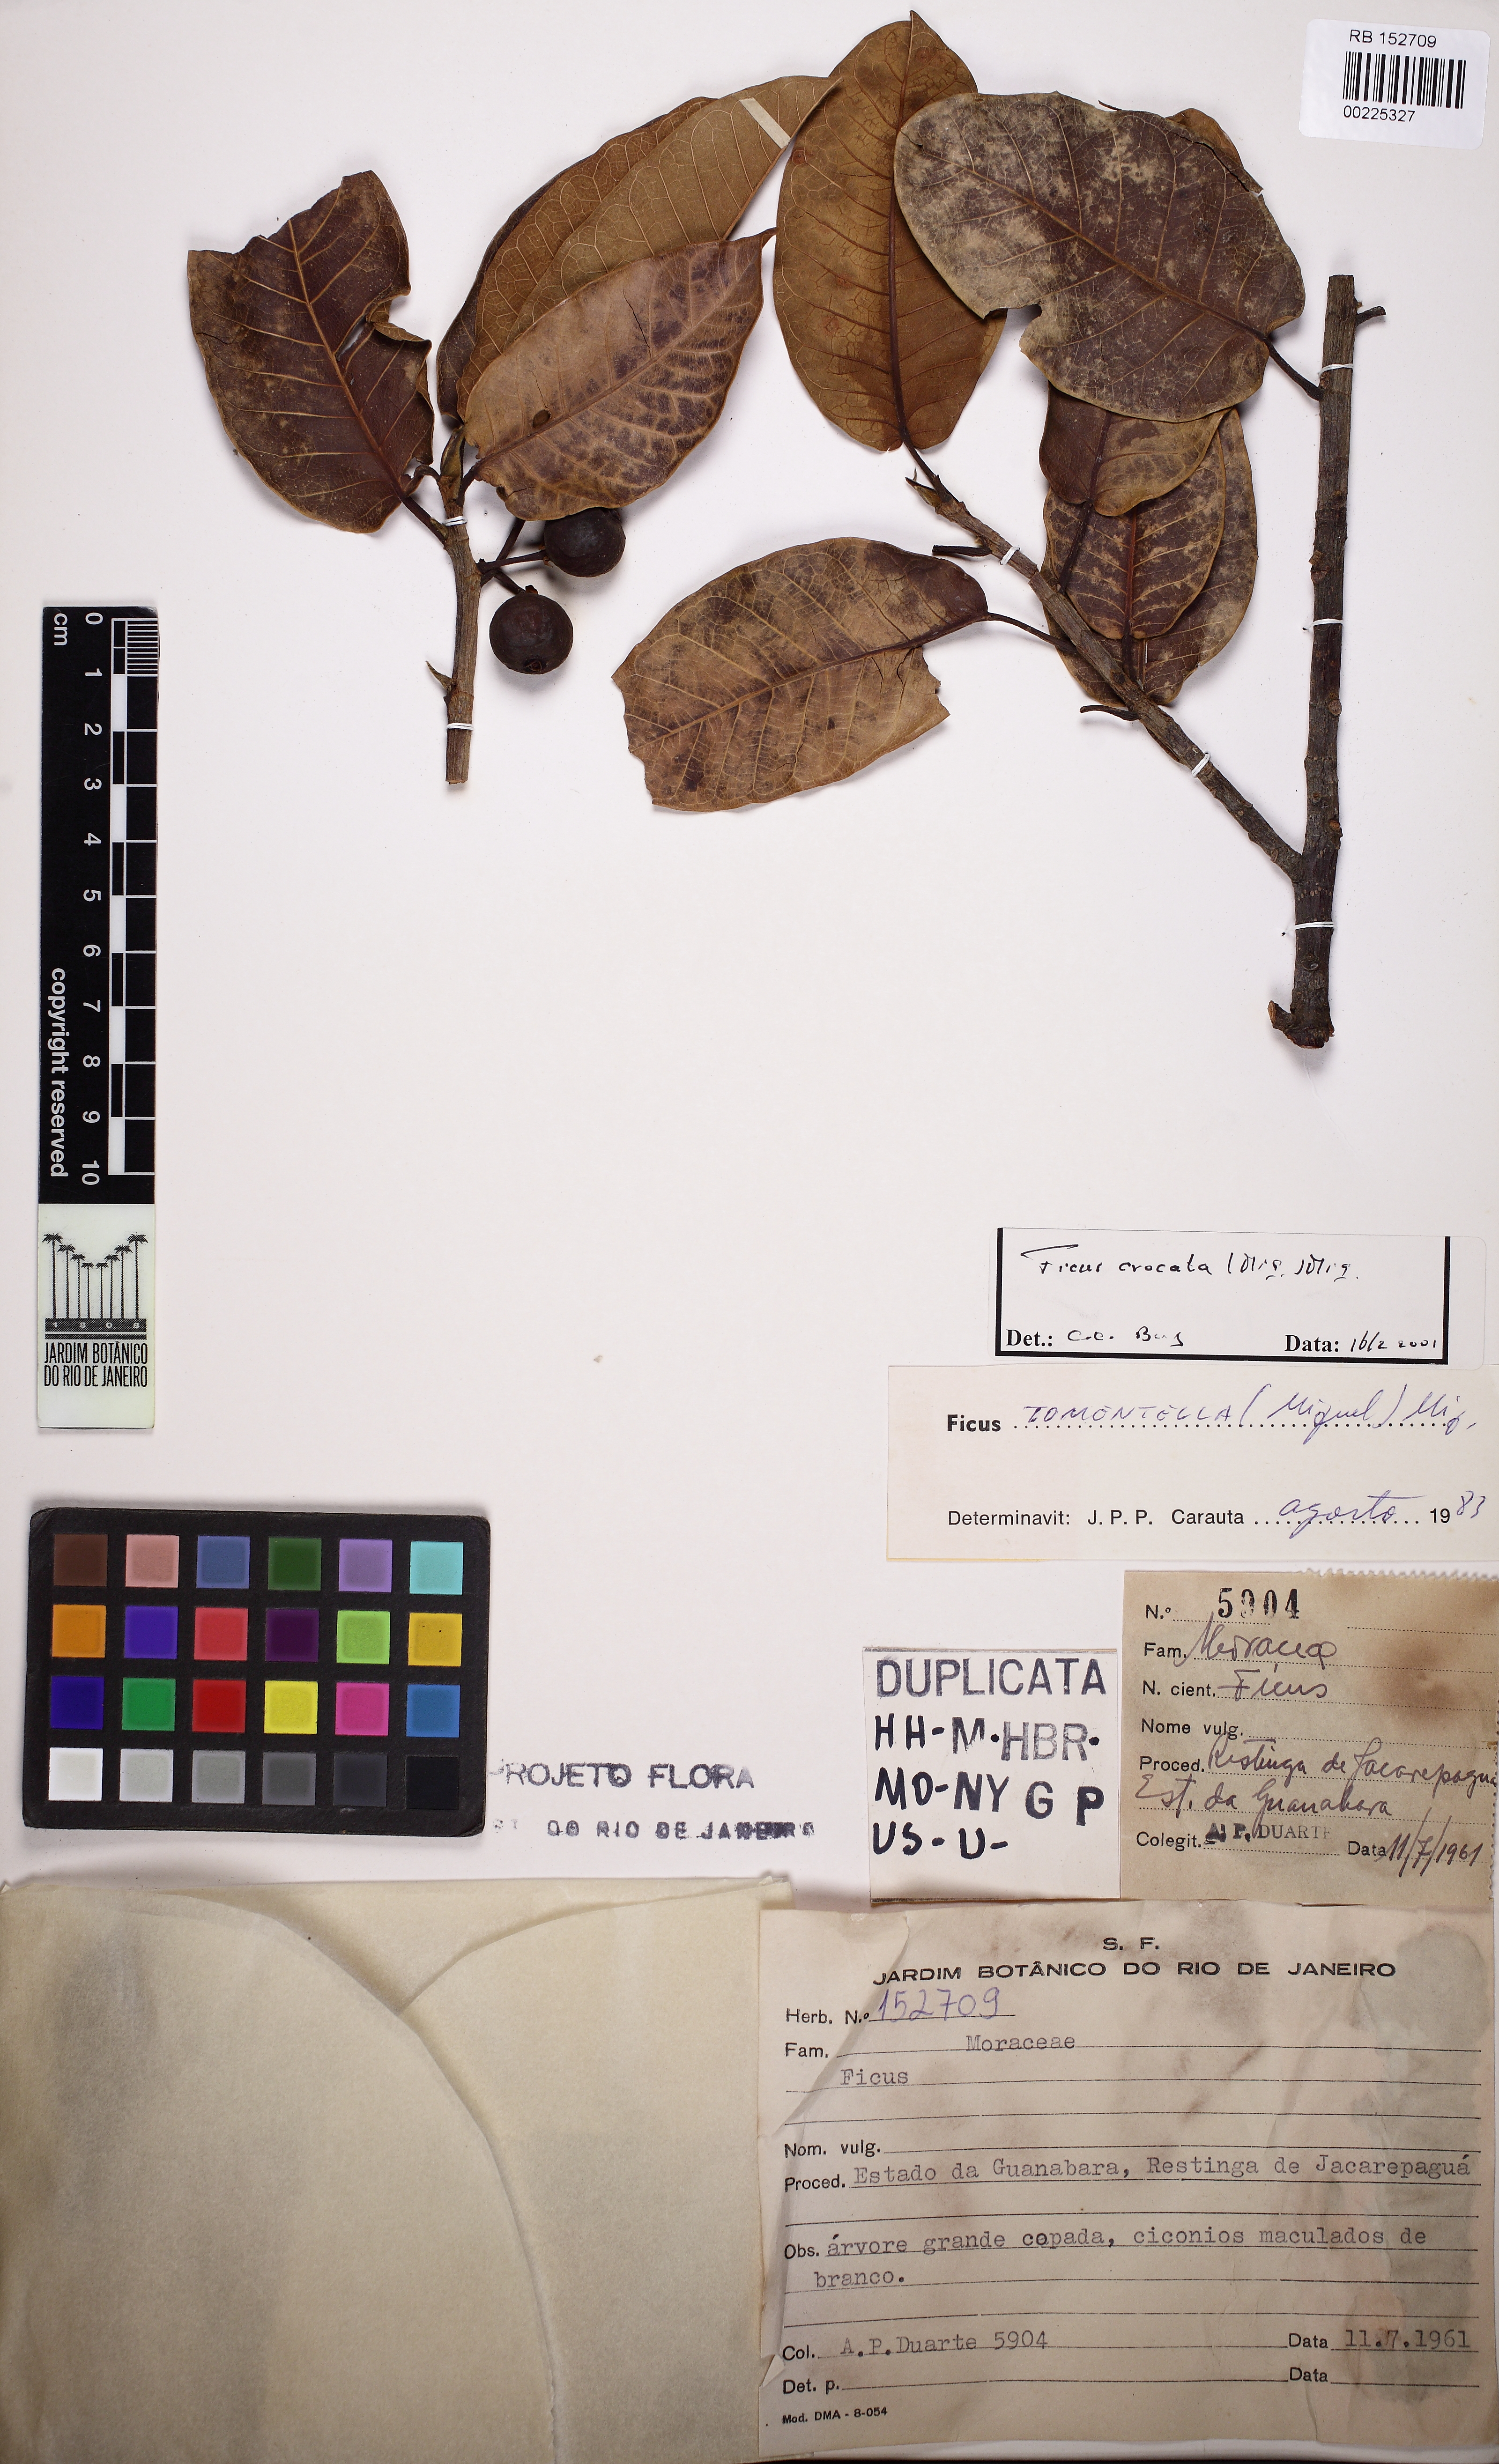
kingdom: Plantae
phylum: Tracheophyta
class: Magnoliopsida
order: Rosales
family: Moraceae
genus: Ficus
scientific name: Ficus crocata
